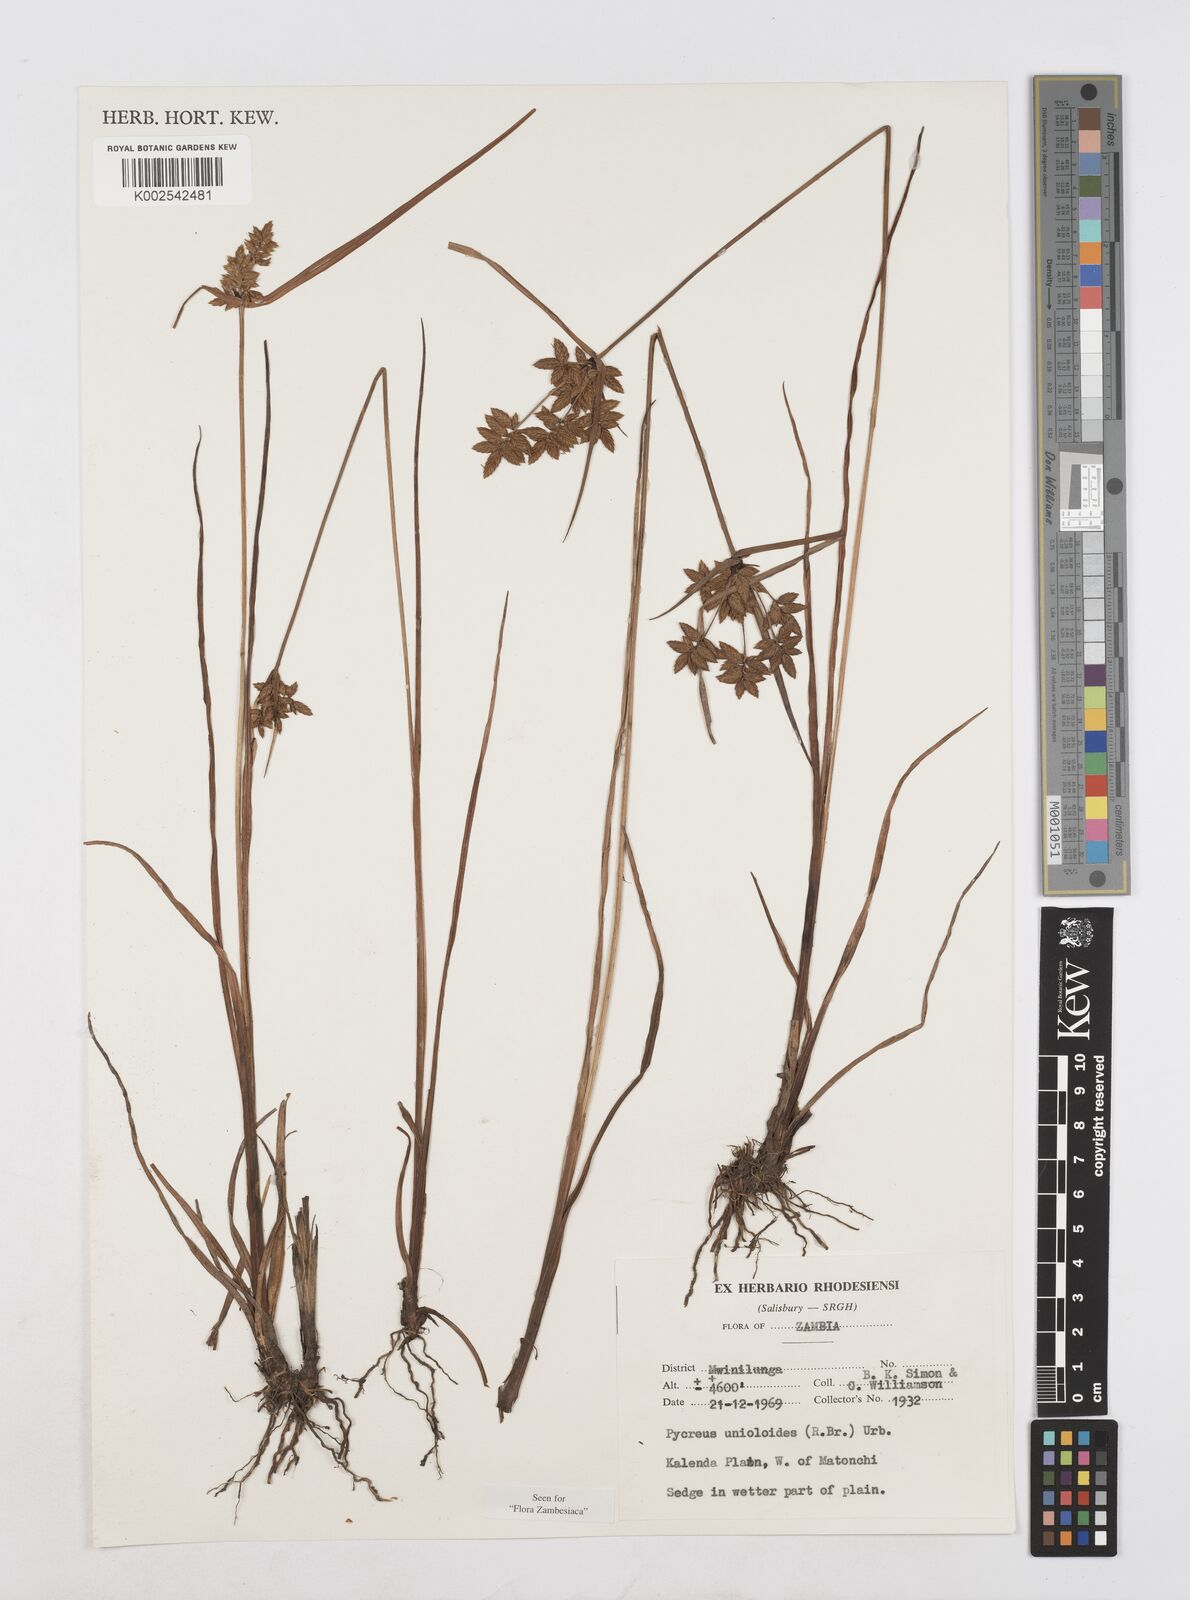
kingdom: Plantae
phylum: Tracheophyta
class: Liliopsida
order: Poales
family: Cyperaceae
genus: Cyperus
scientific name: Cyperus unioloides
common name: Uniola flatsedge
